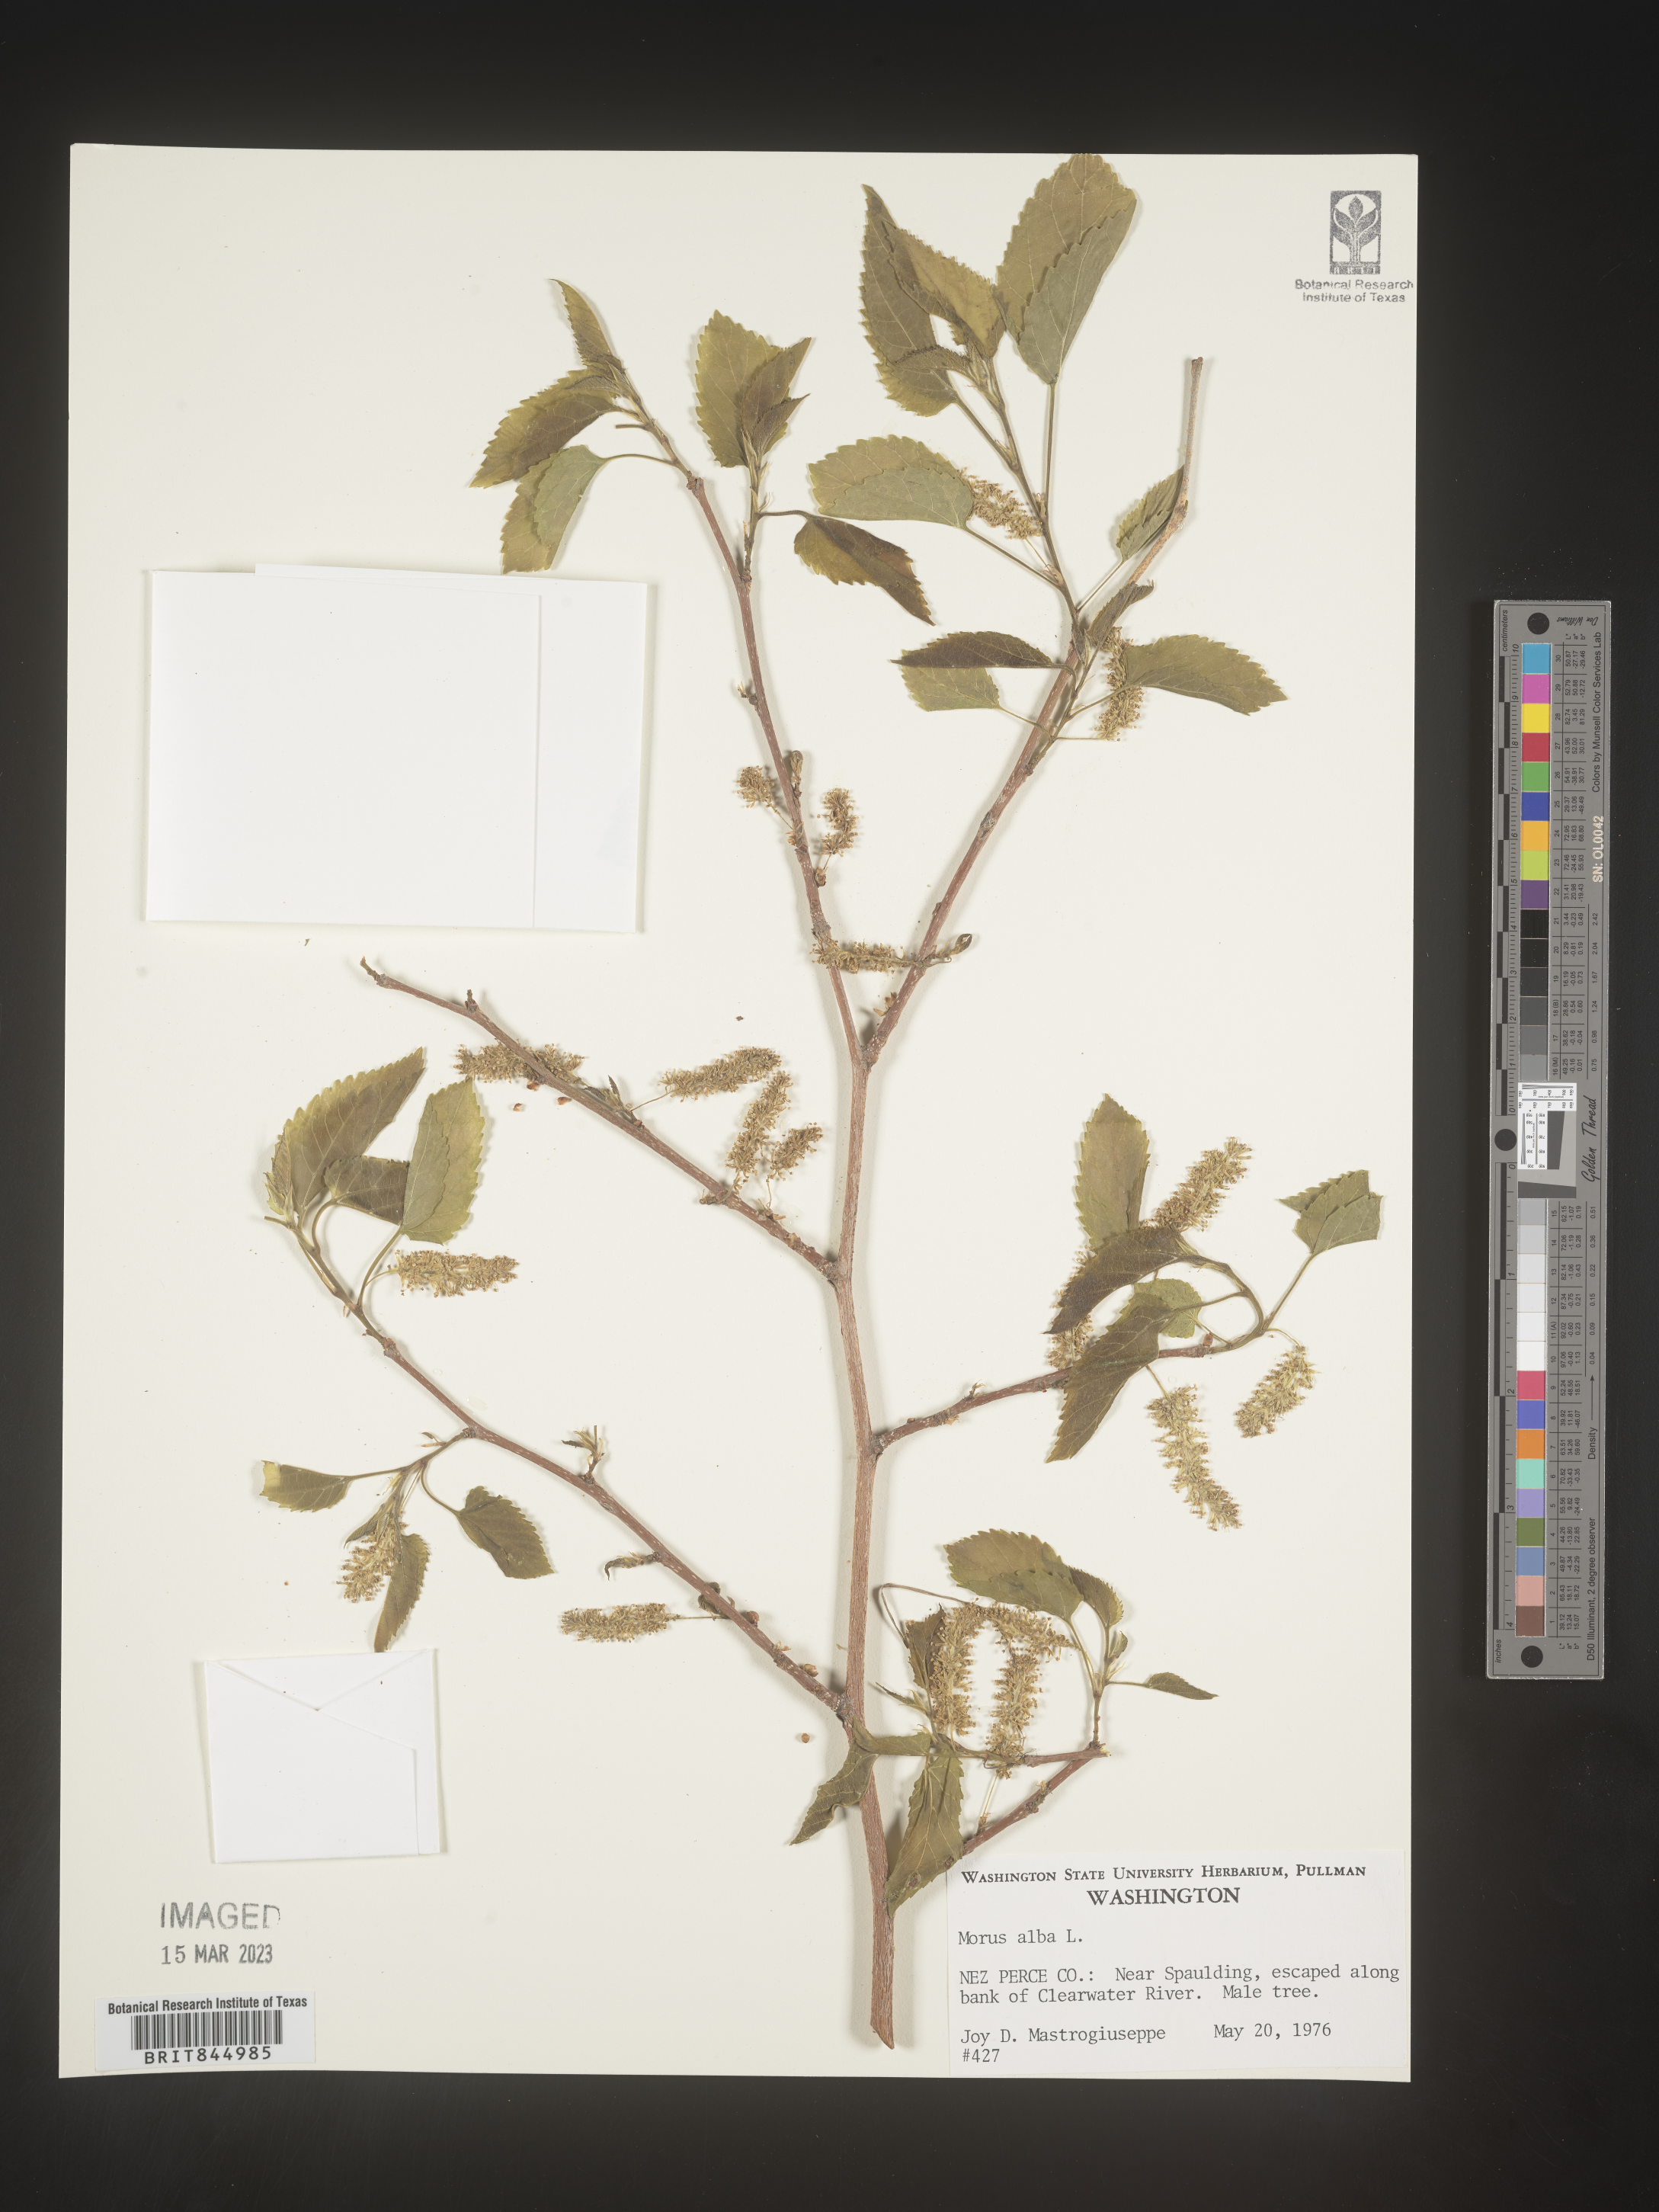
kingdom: Plantae
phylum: Tracheophyta
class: Magnoliopsida
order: Rosales
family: Moraceae
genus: Morus
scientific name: Morus alba
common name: White mulberry
